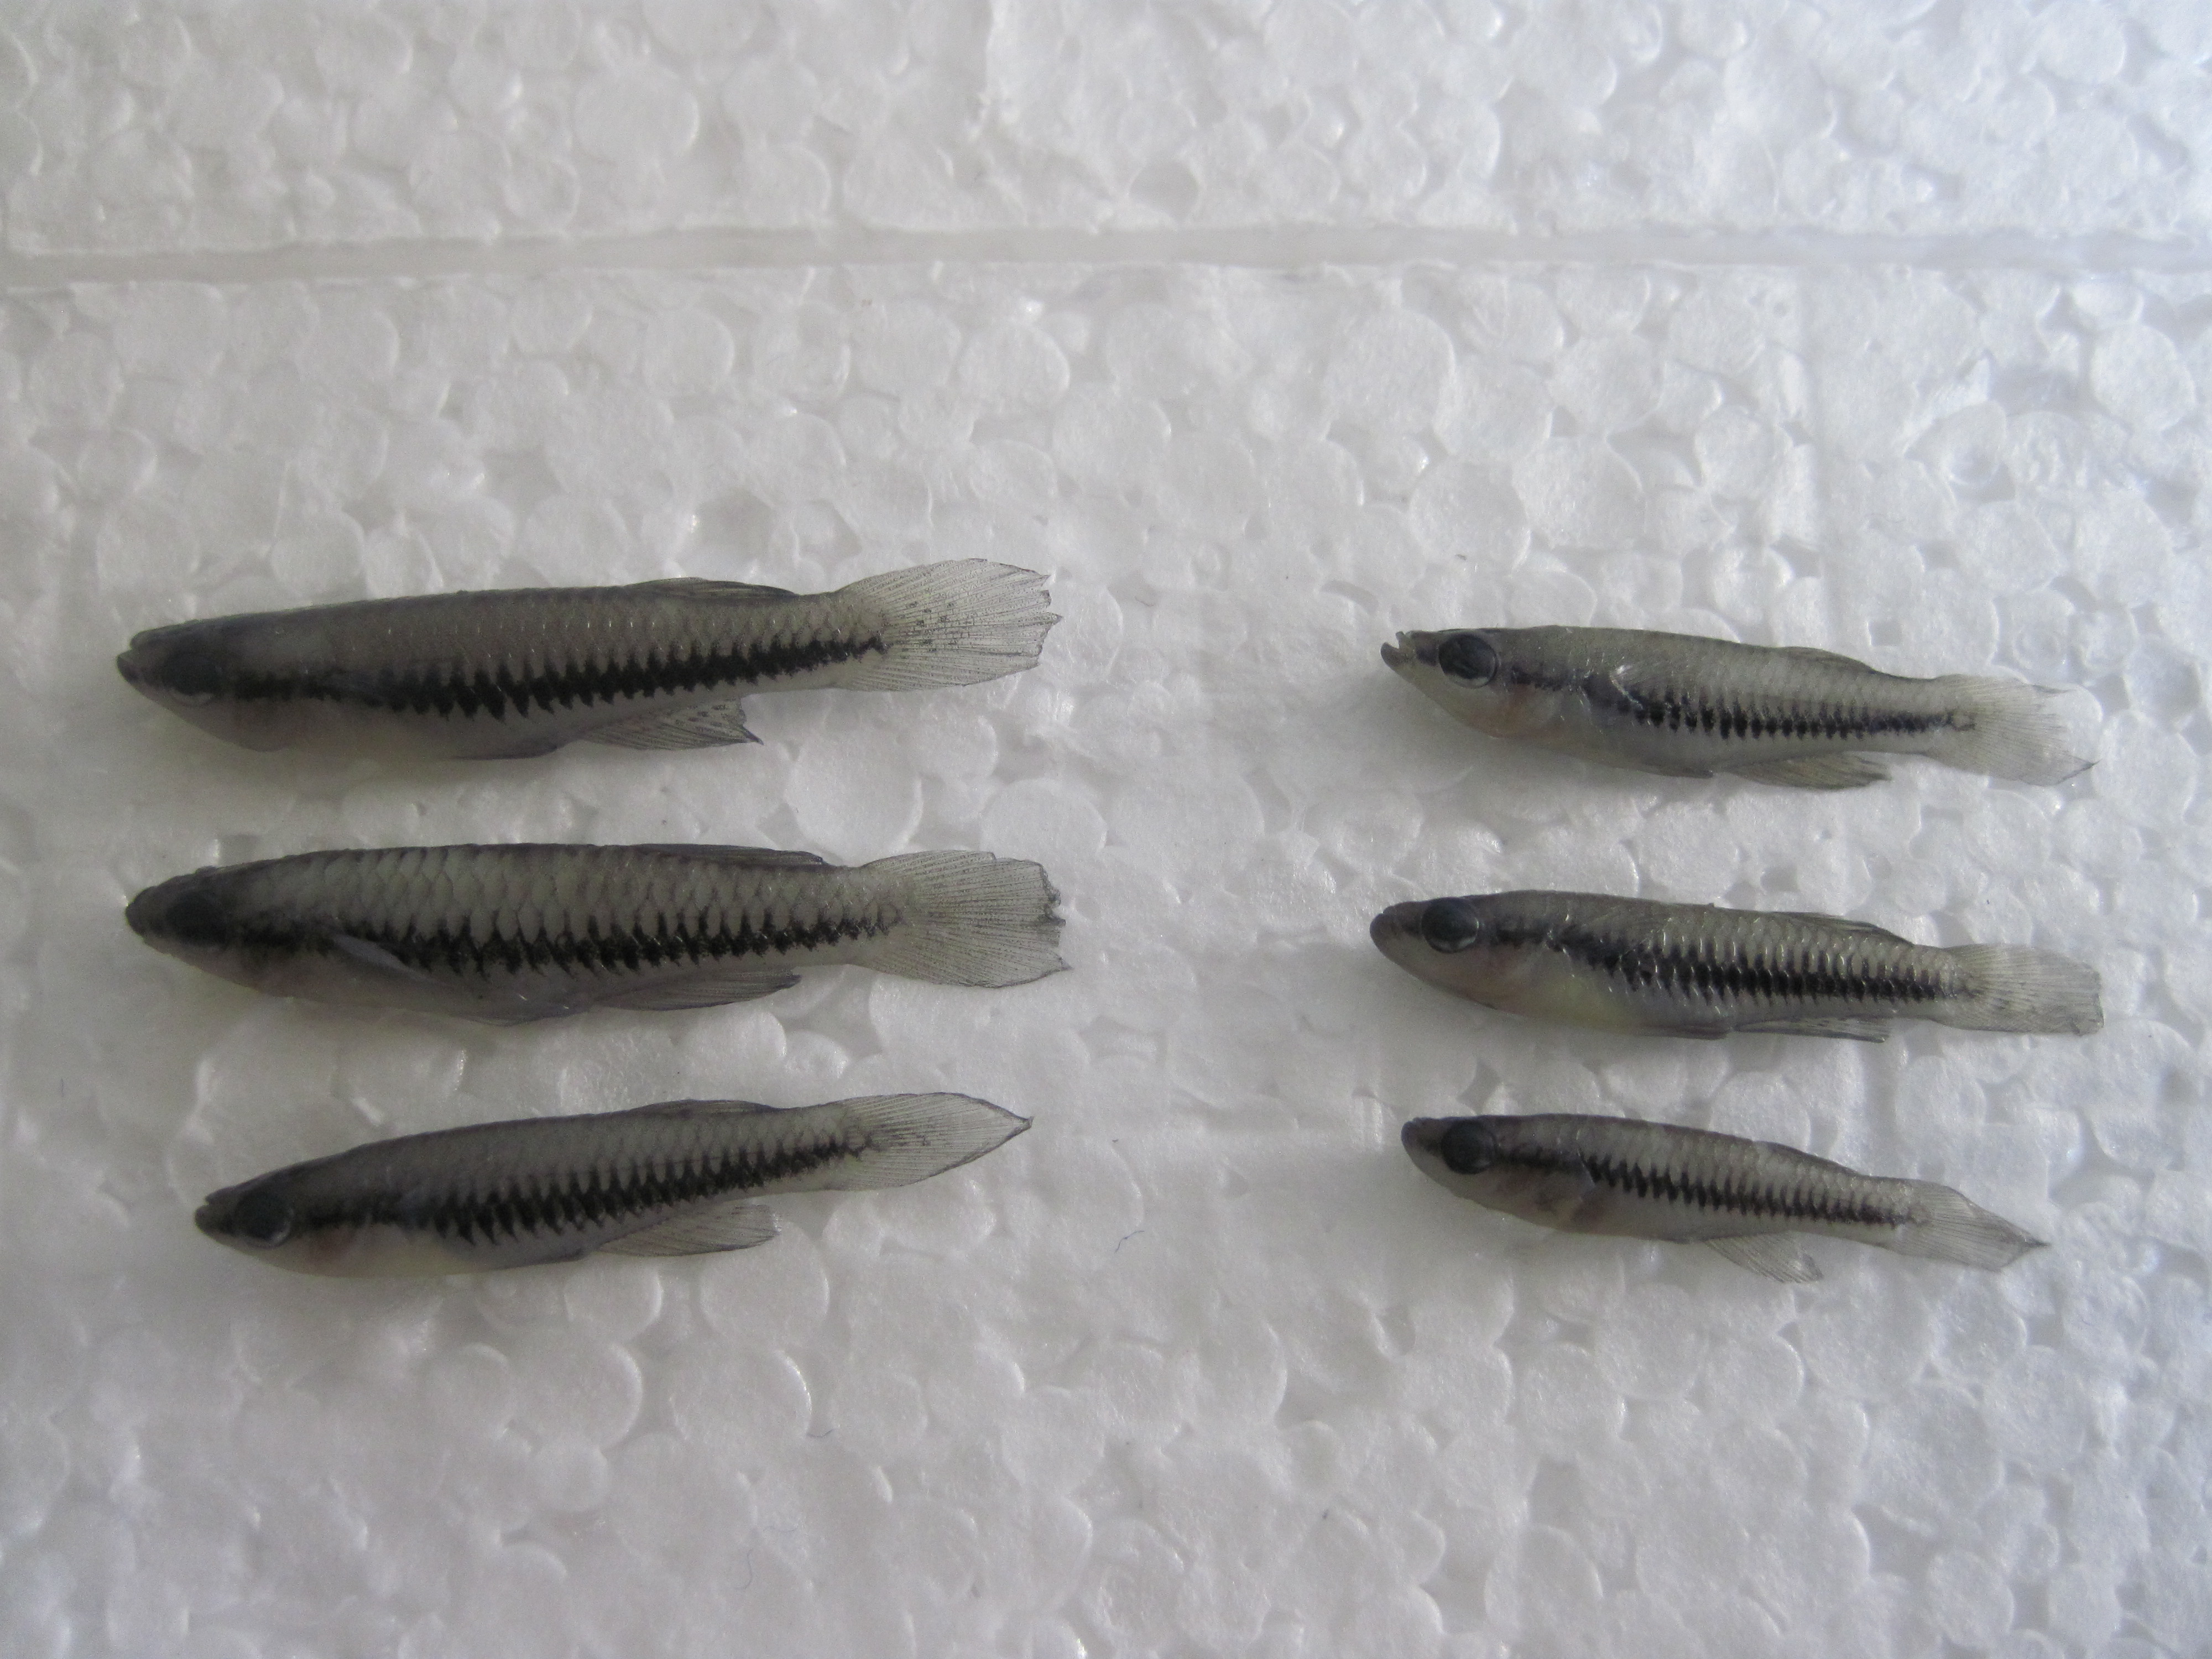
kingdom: Animalia
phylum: Chordata
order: Cyprinodontiformes
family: Poeciliidae
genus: Lacustricola
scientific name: Lacustricola katangae
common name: Striped topminnow
